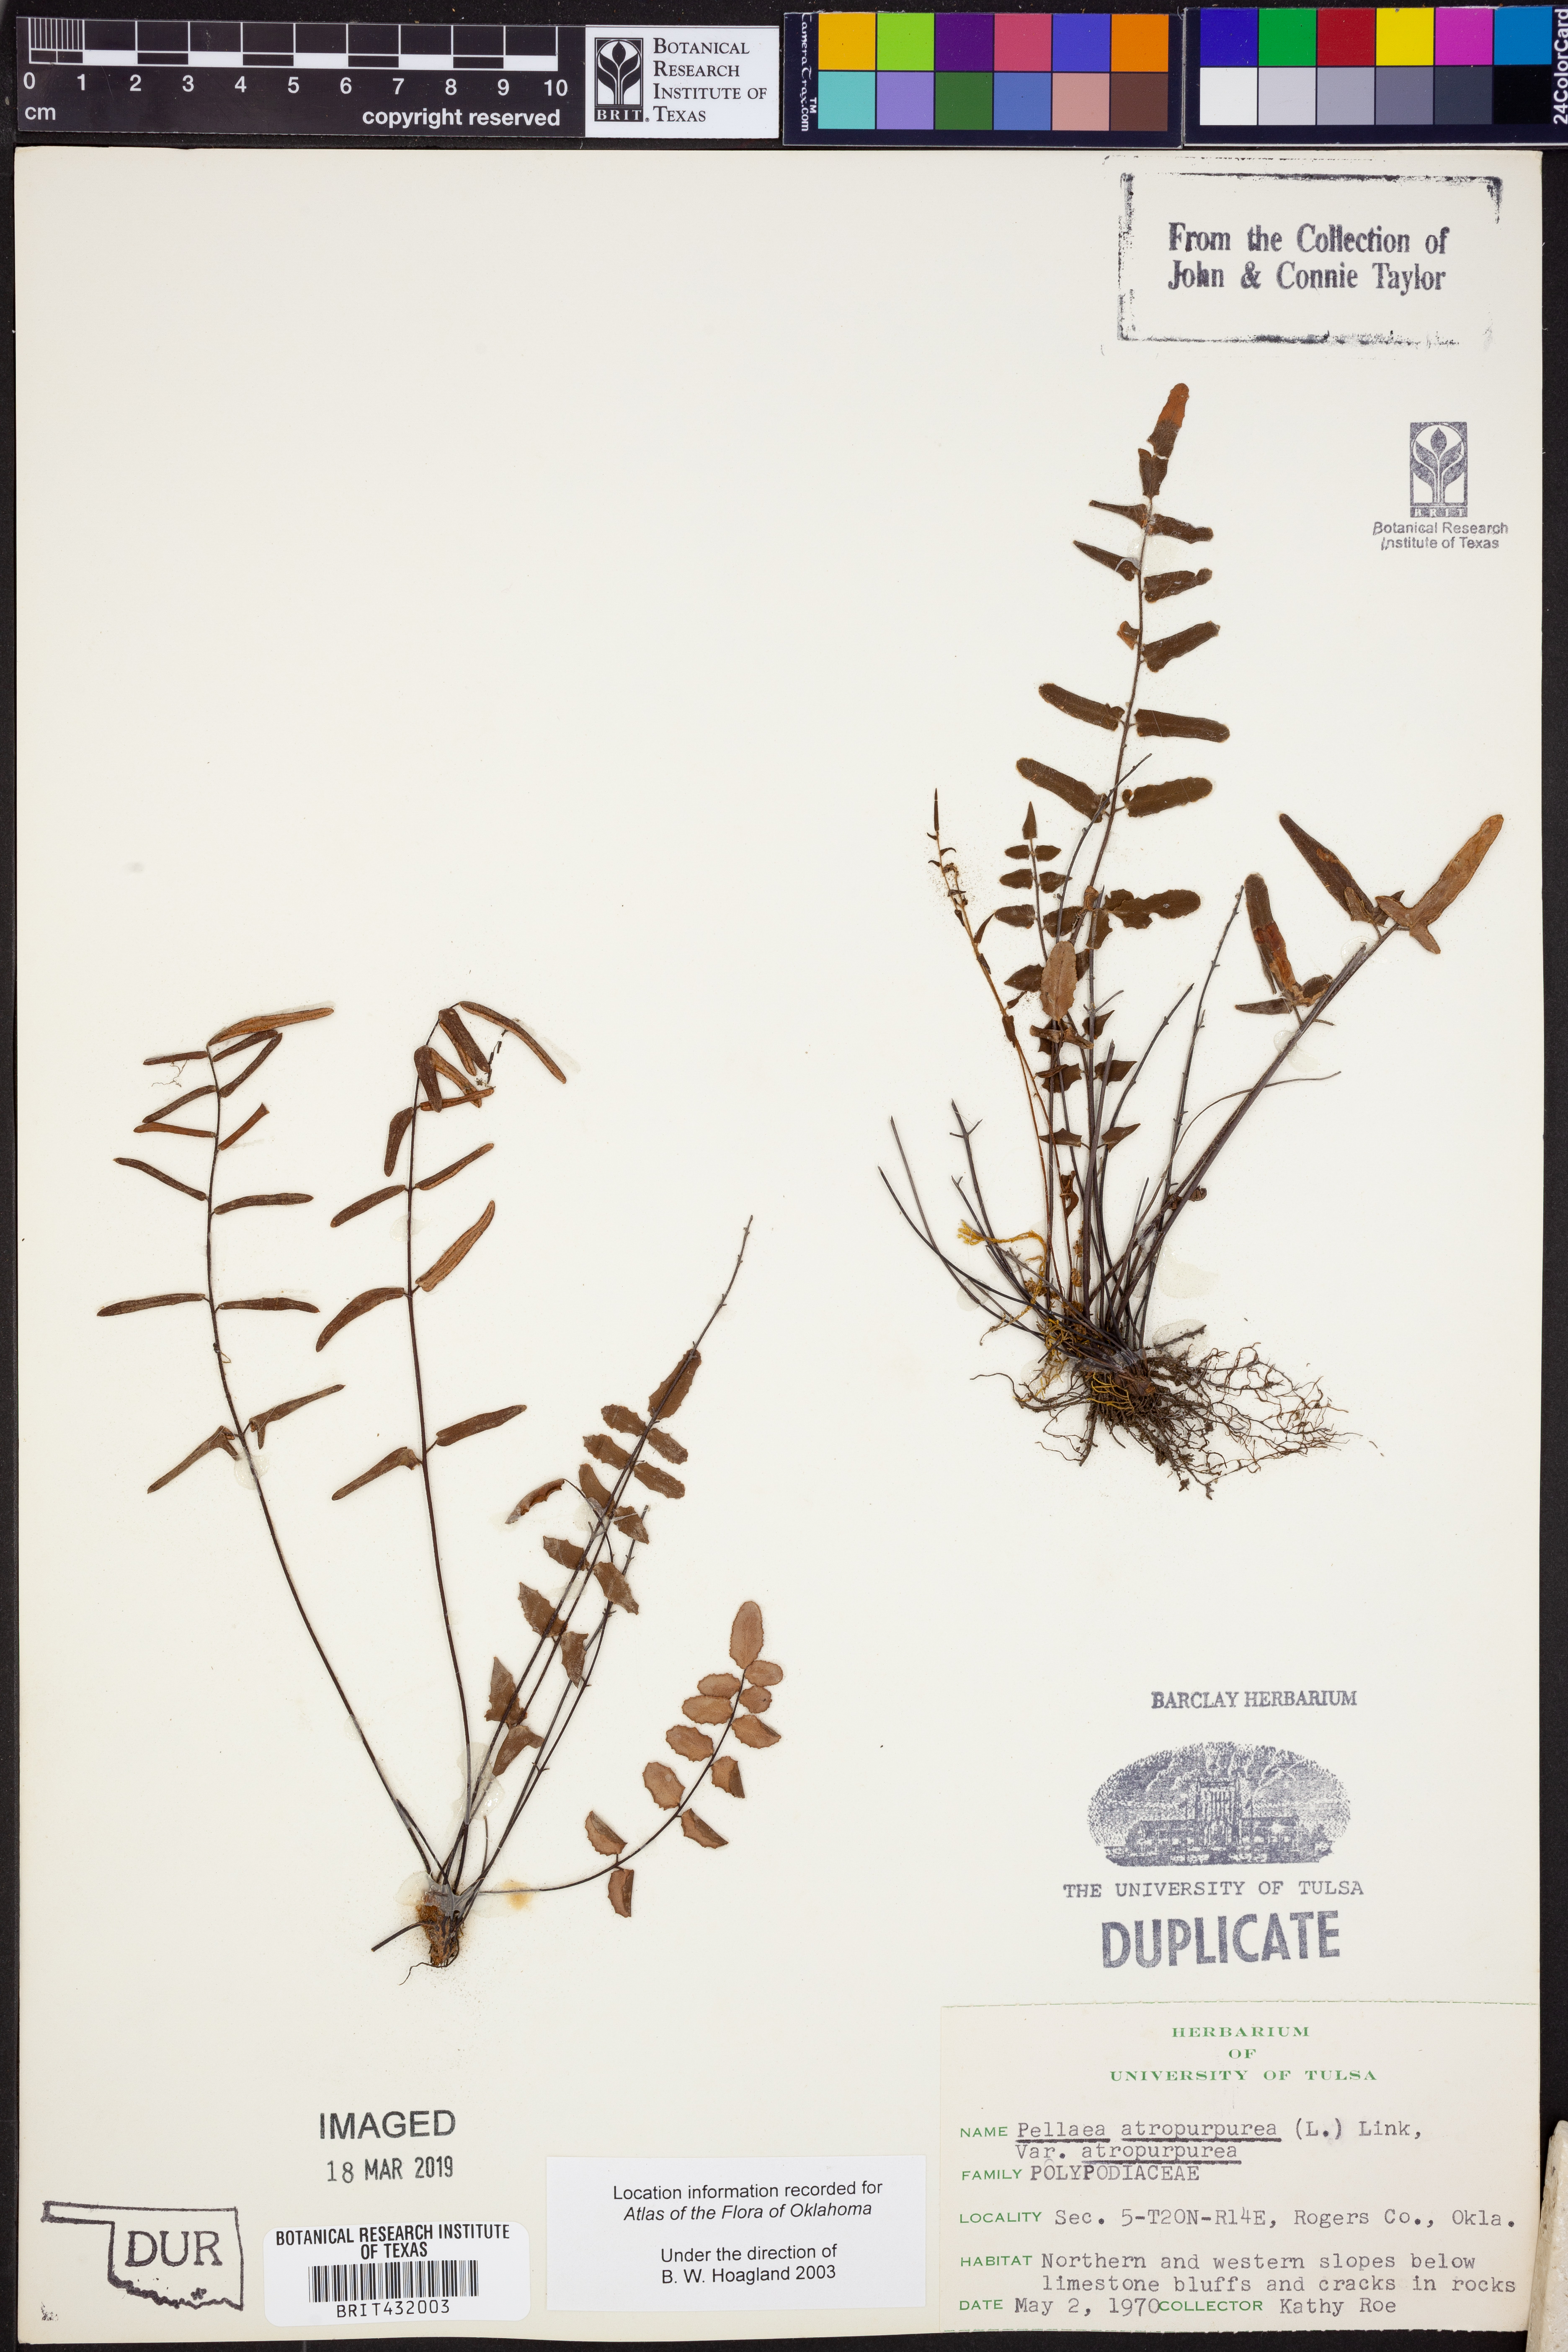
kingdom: Plantae
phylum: Tracheophyta
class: Polypodiopsida
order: Polypodiales
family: Pteridaceae
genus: Pellaea
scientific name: Pellaea atropurpurea
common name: Hairy cliffbrake
